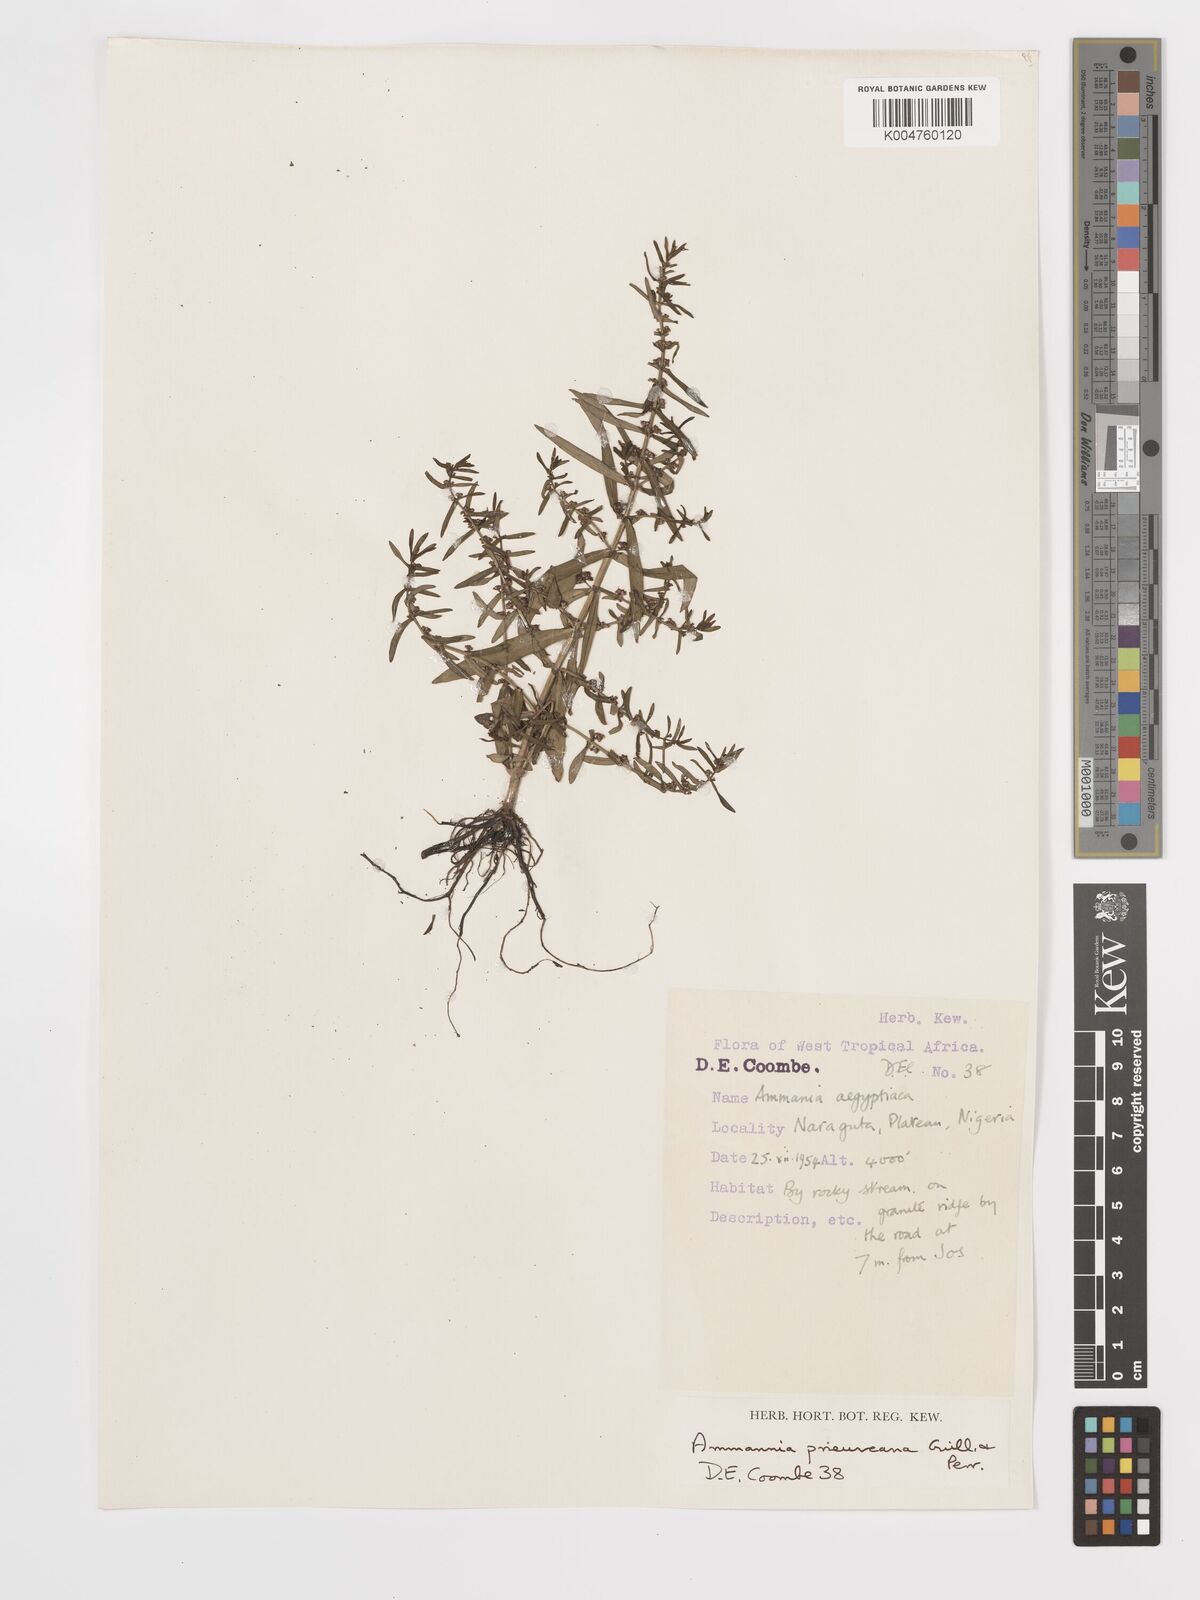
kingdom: Plantae
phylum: Tracheophyta
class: Magnoliopsida
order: Myrtales
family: Lythraceae
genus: Ammannia
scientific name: Ammannia prieuriana
